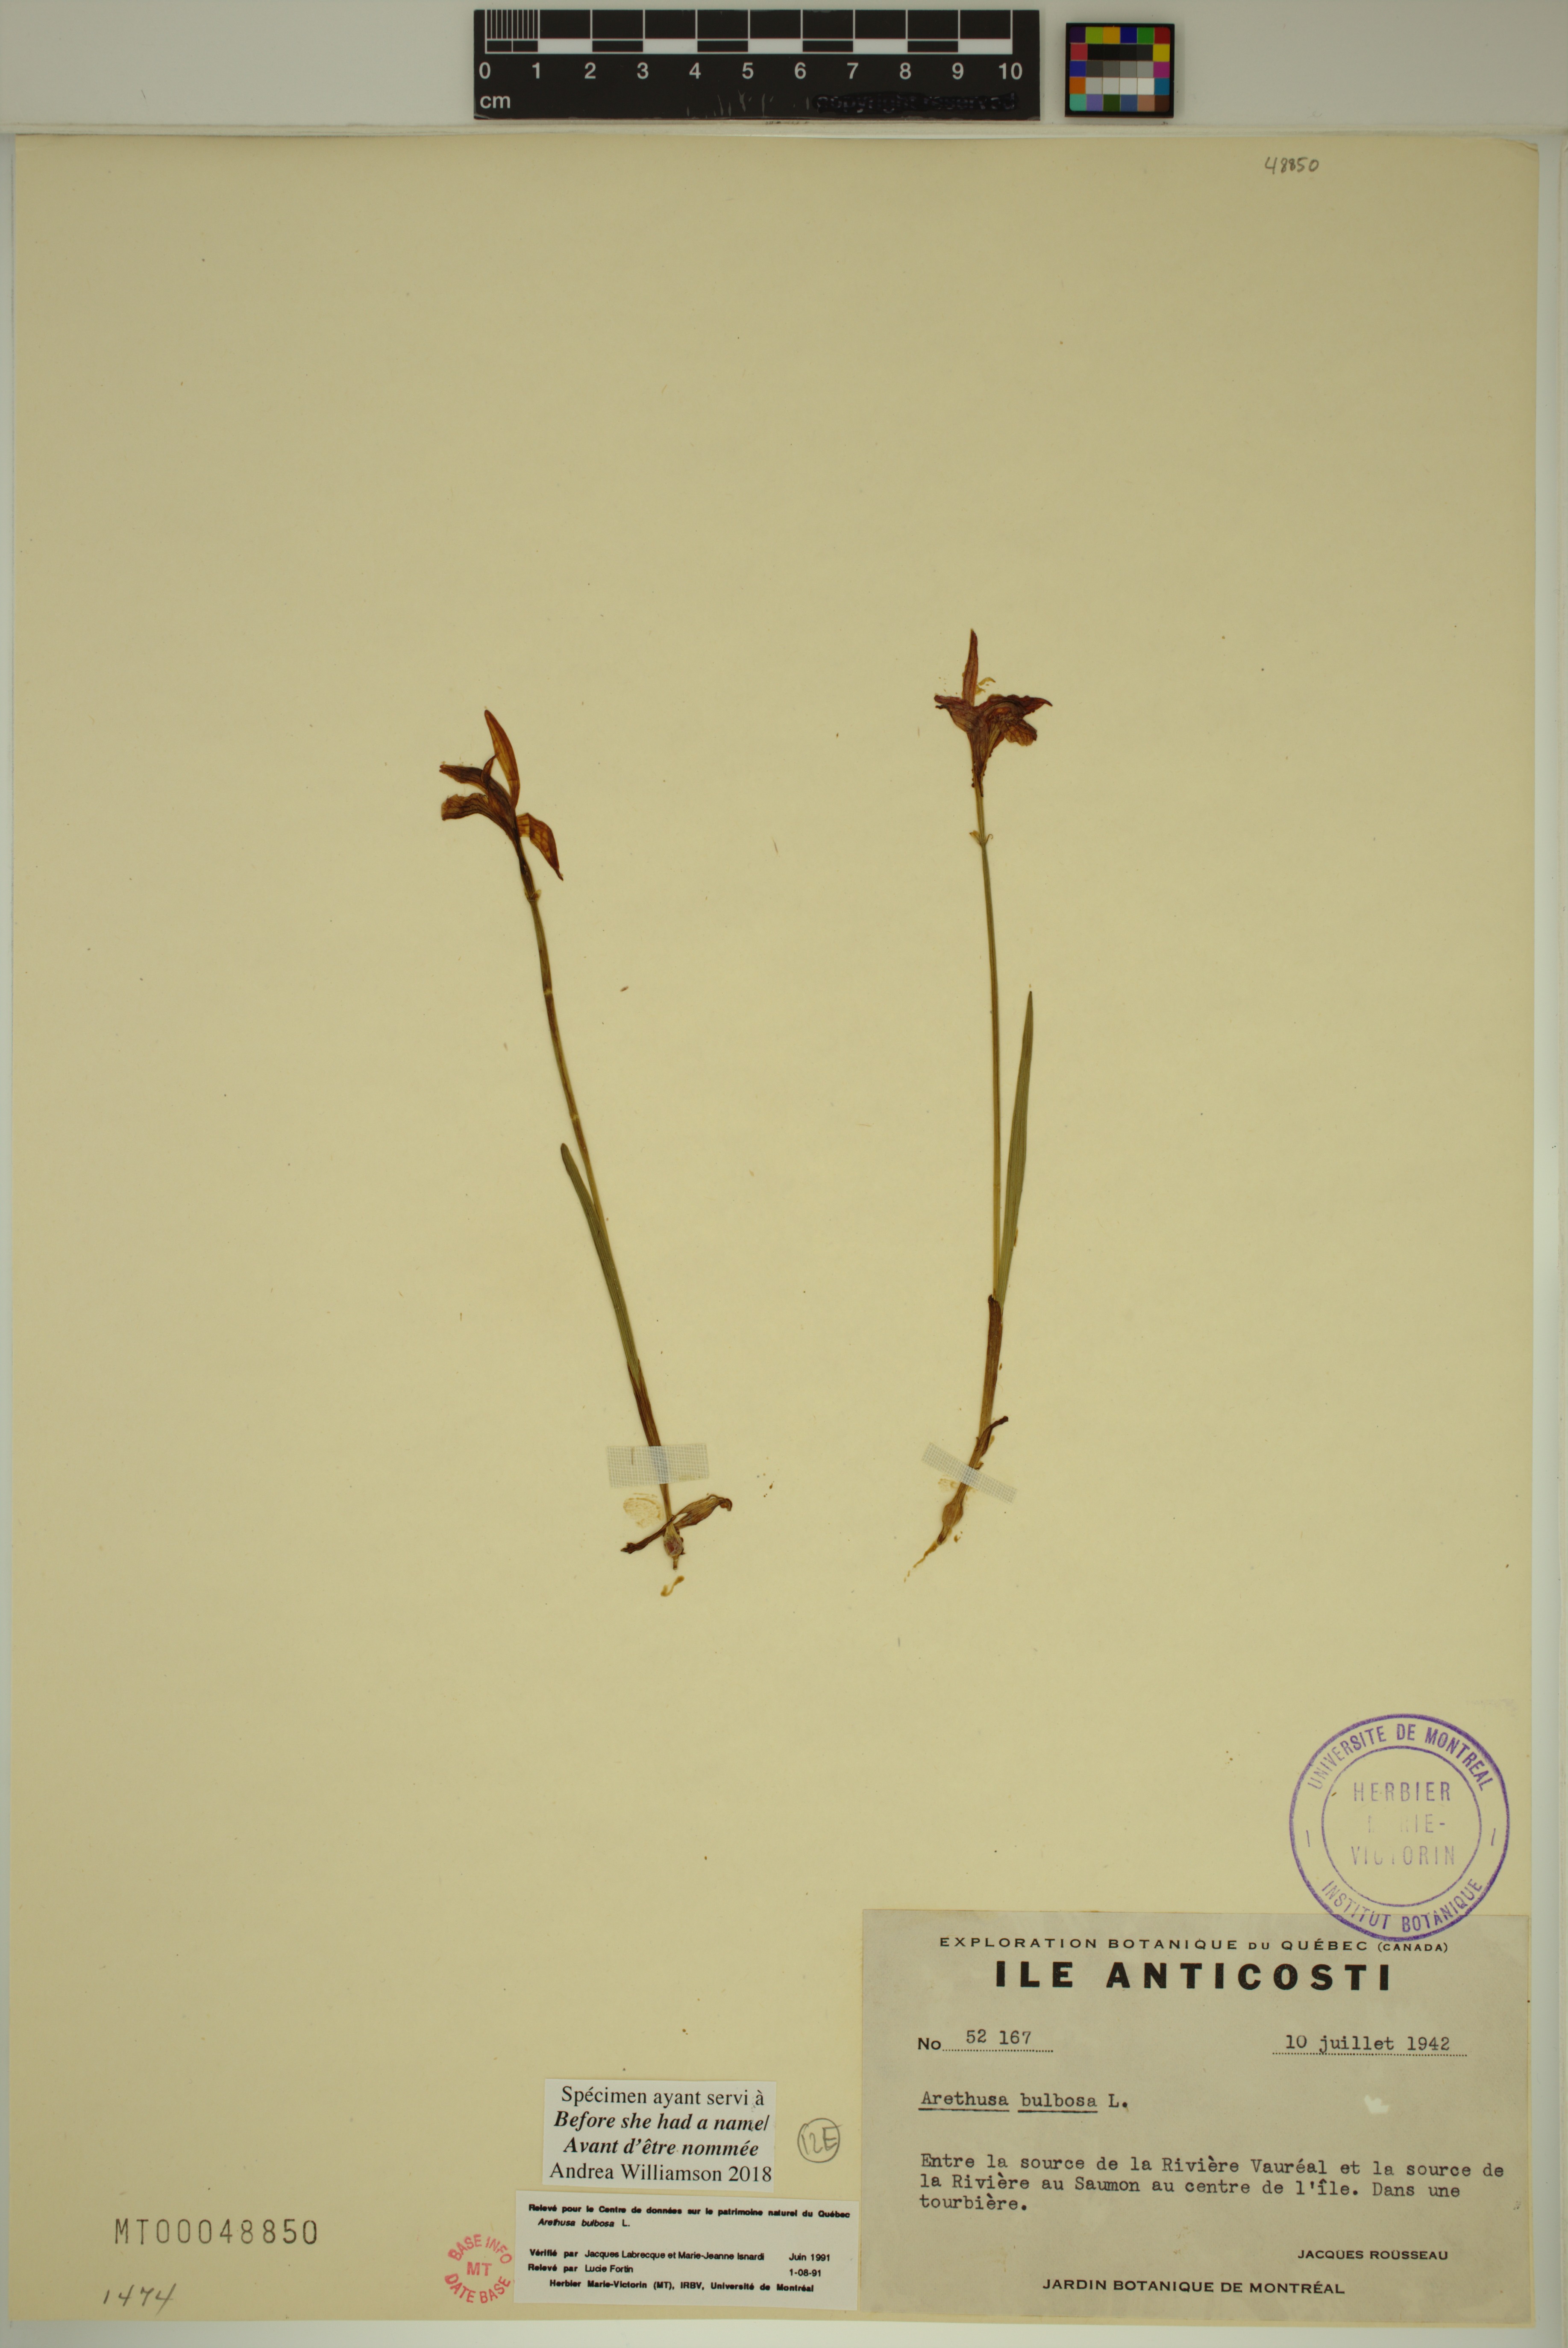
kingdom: Plantae
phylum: Tracheophyta
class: Liliopsida
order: Asparagales
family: Orchidaceae
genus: Arethusa
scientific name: Arethusa bulbosa
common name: Arethusa
